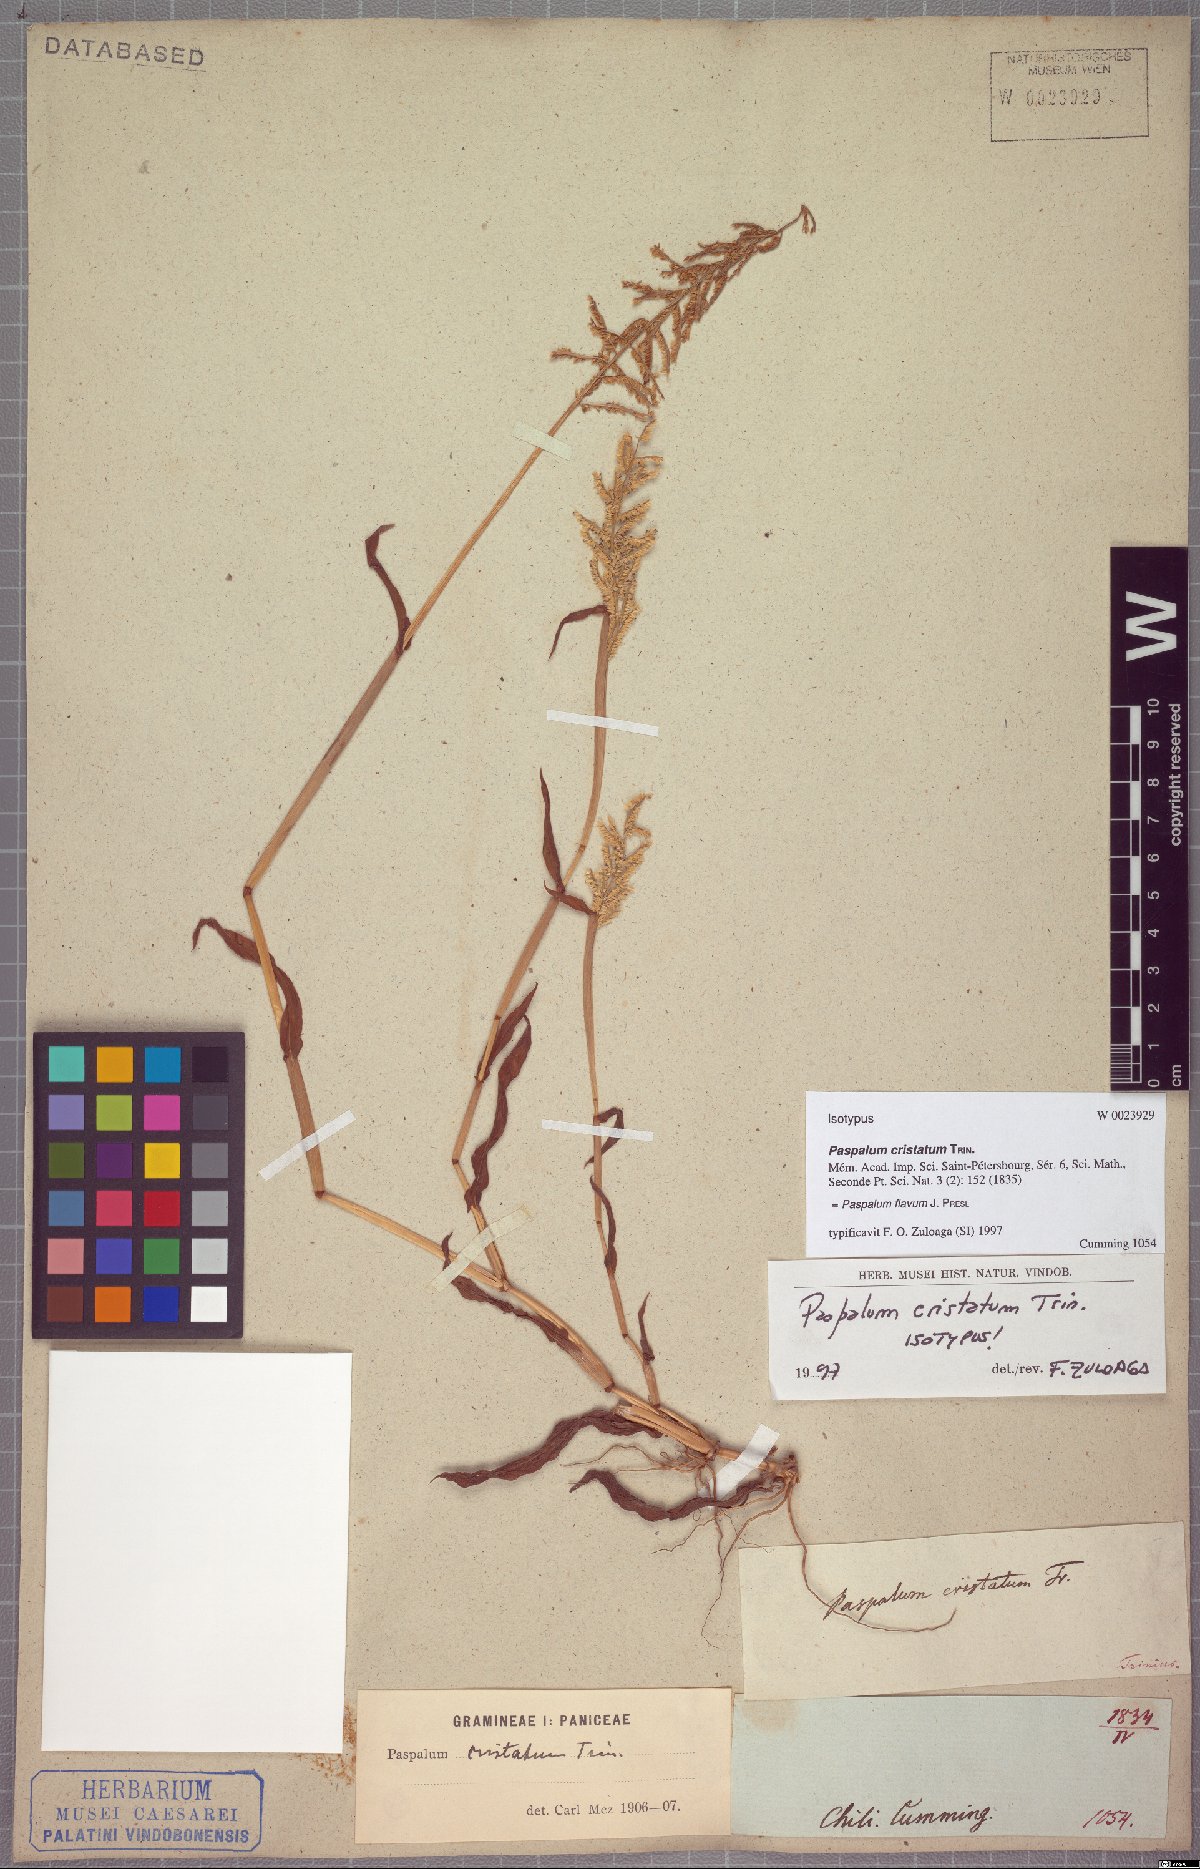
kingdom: Plantae
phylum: Tracheophyta
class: Liliopsida
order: Poales
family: Poaceae
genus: Paspalum
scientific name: Paspalum flavum
